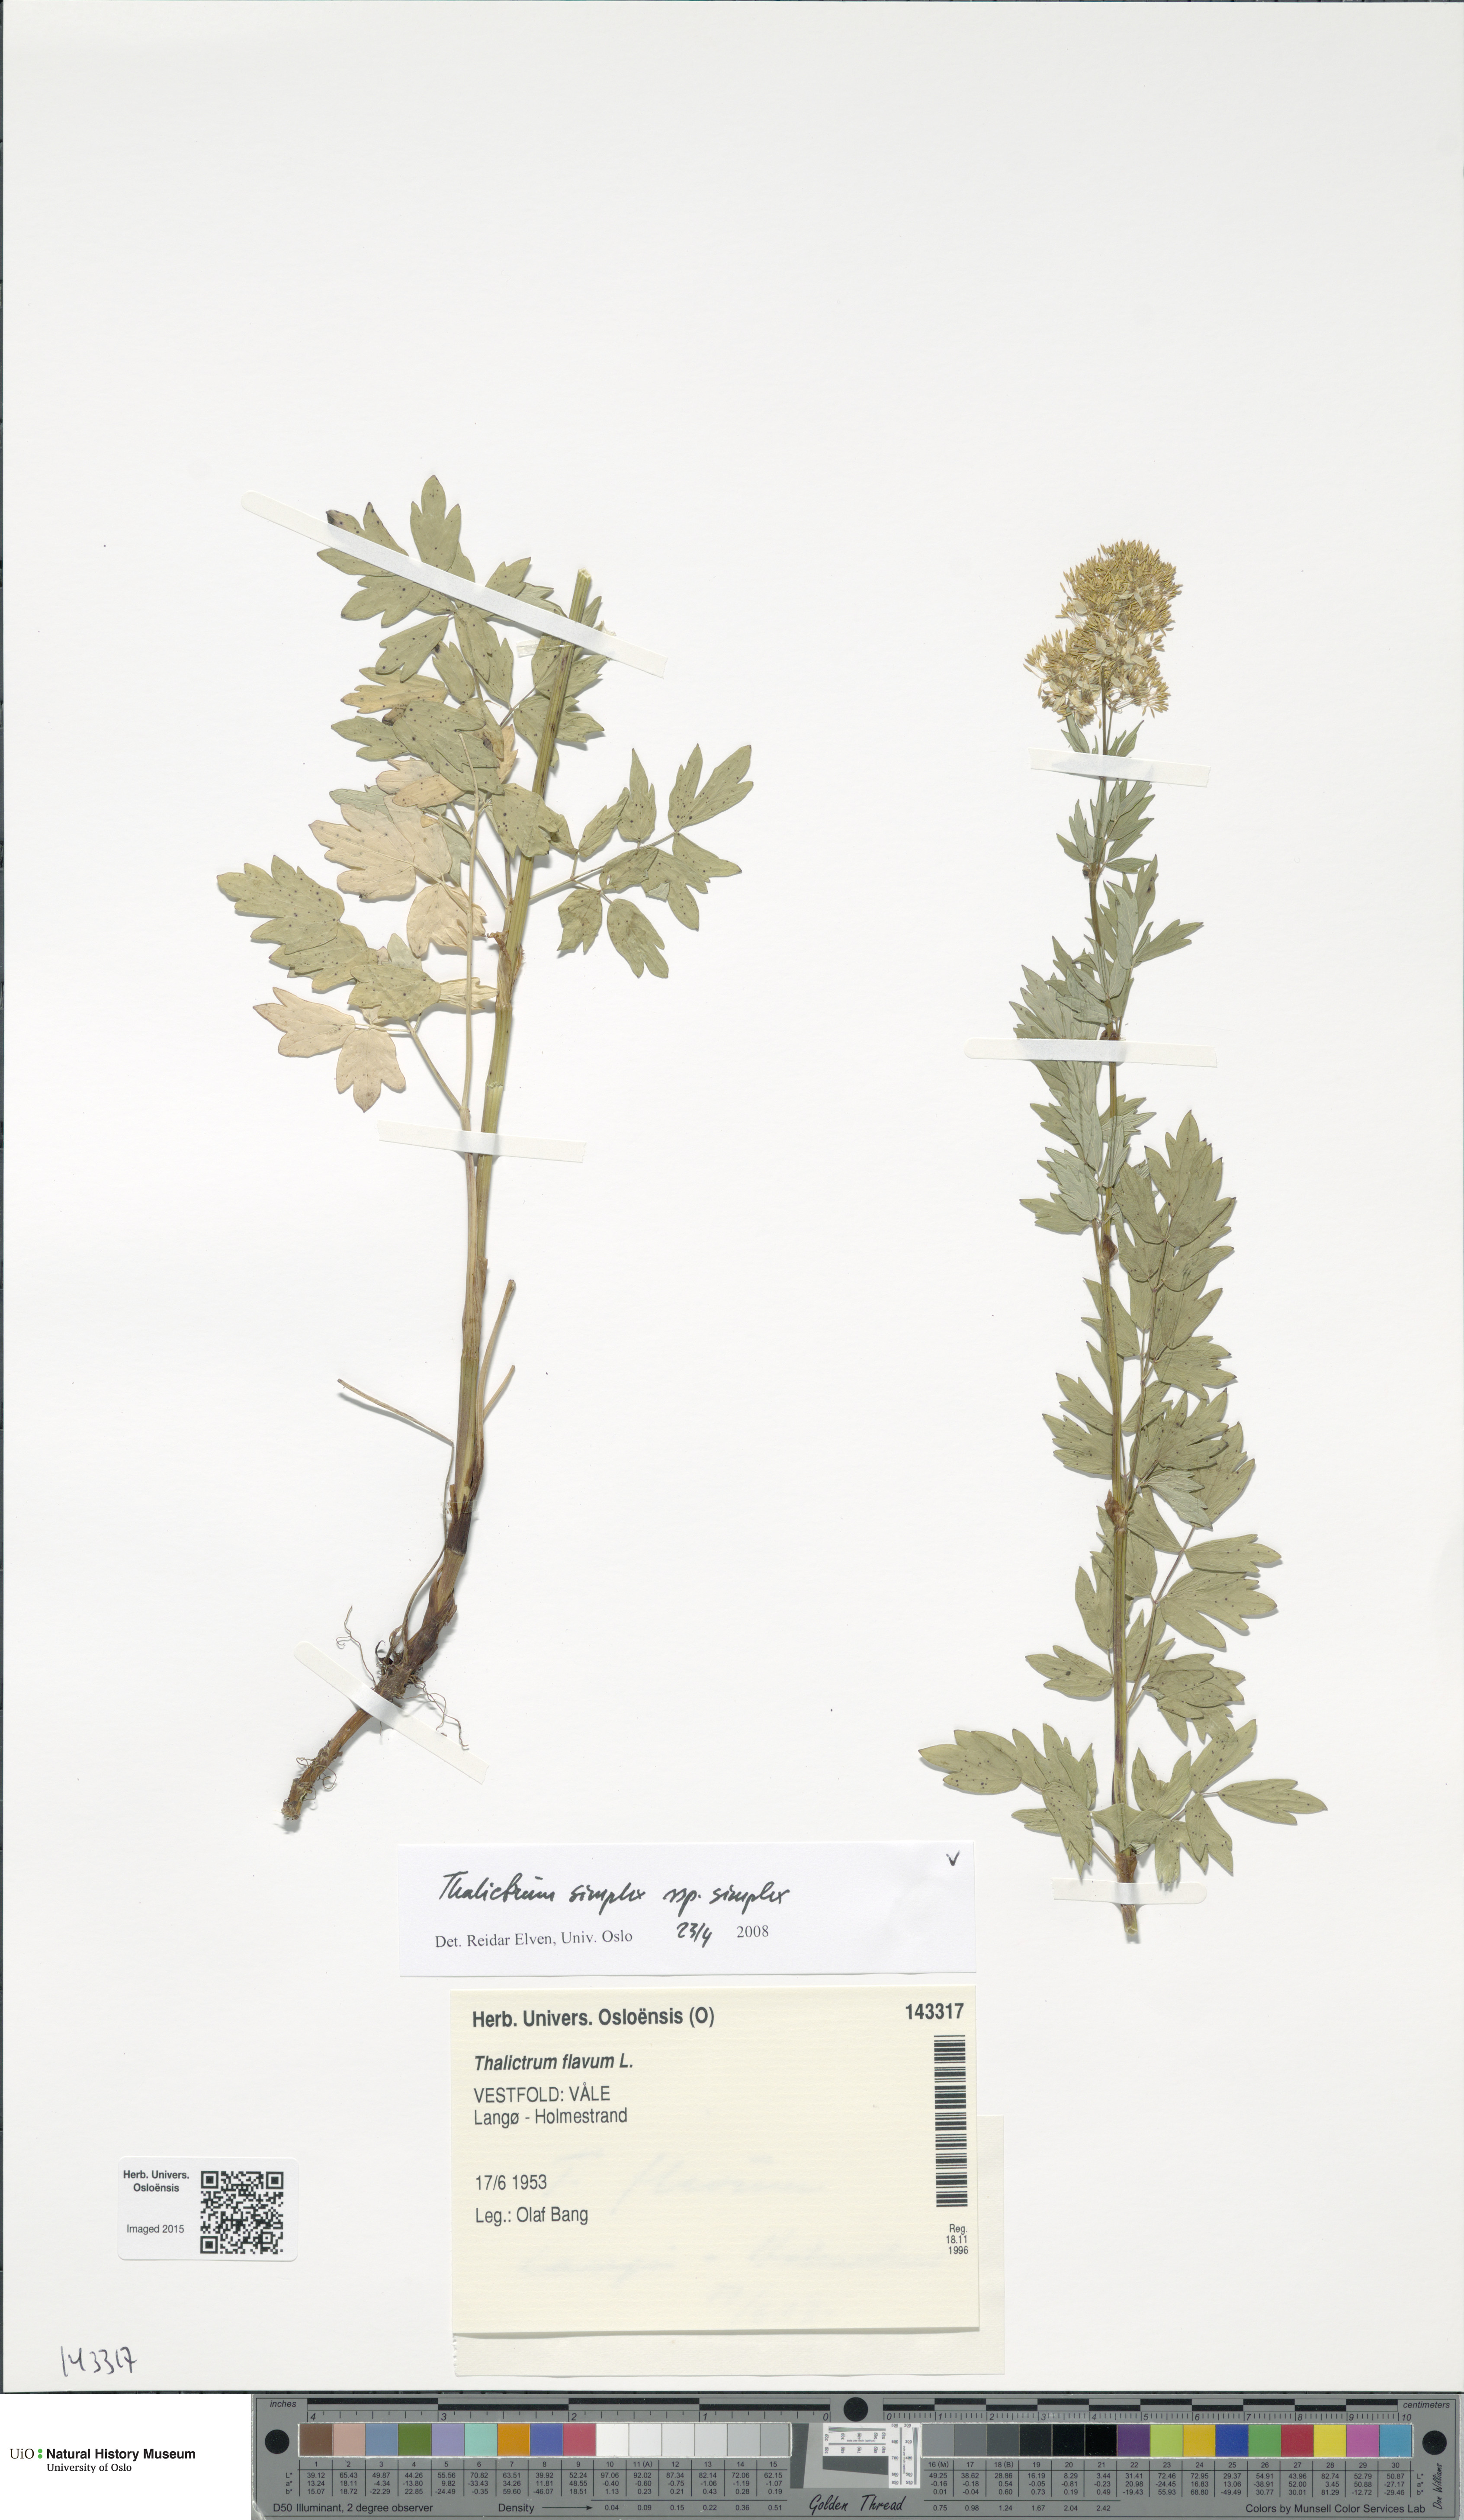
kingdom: Plantae
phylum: Tracheophyta
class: Magnoliopsida
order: Ranunculales
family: Ranunculaceae
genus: Thalictrum
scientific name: Thalictrum simplex
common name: Small meadow-rue
